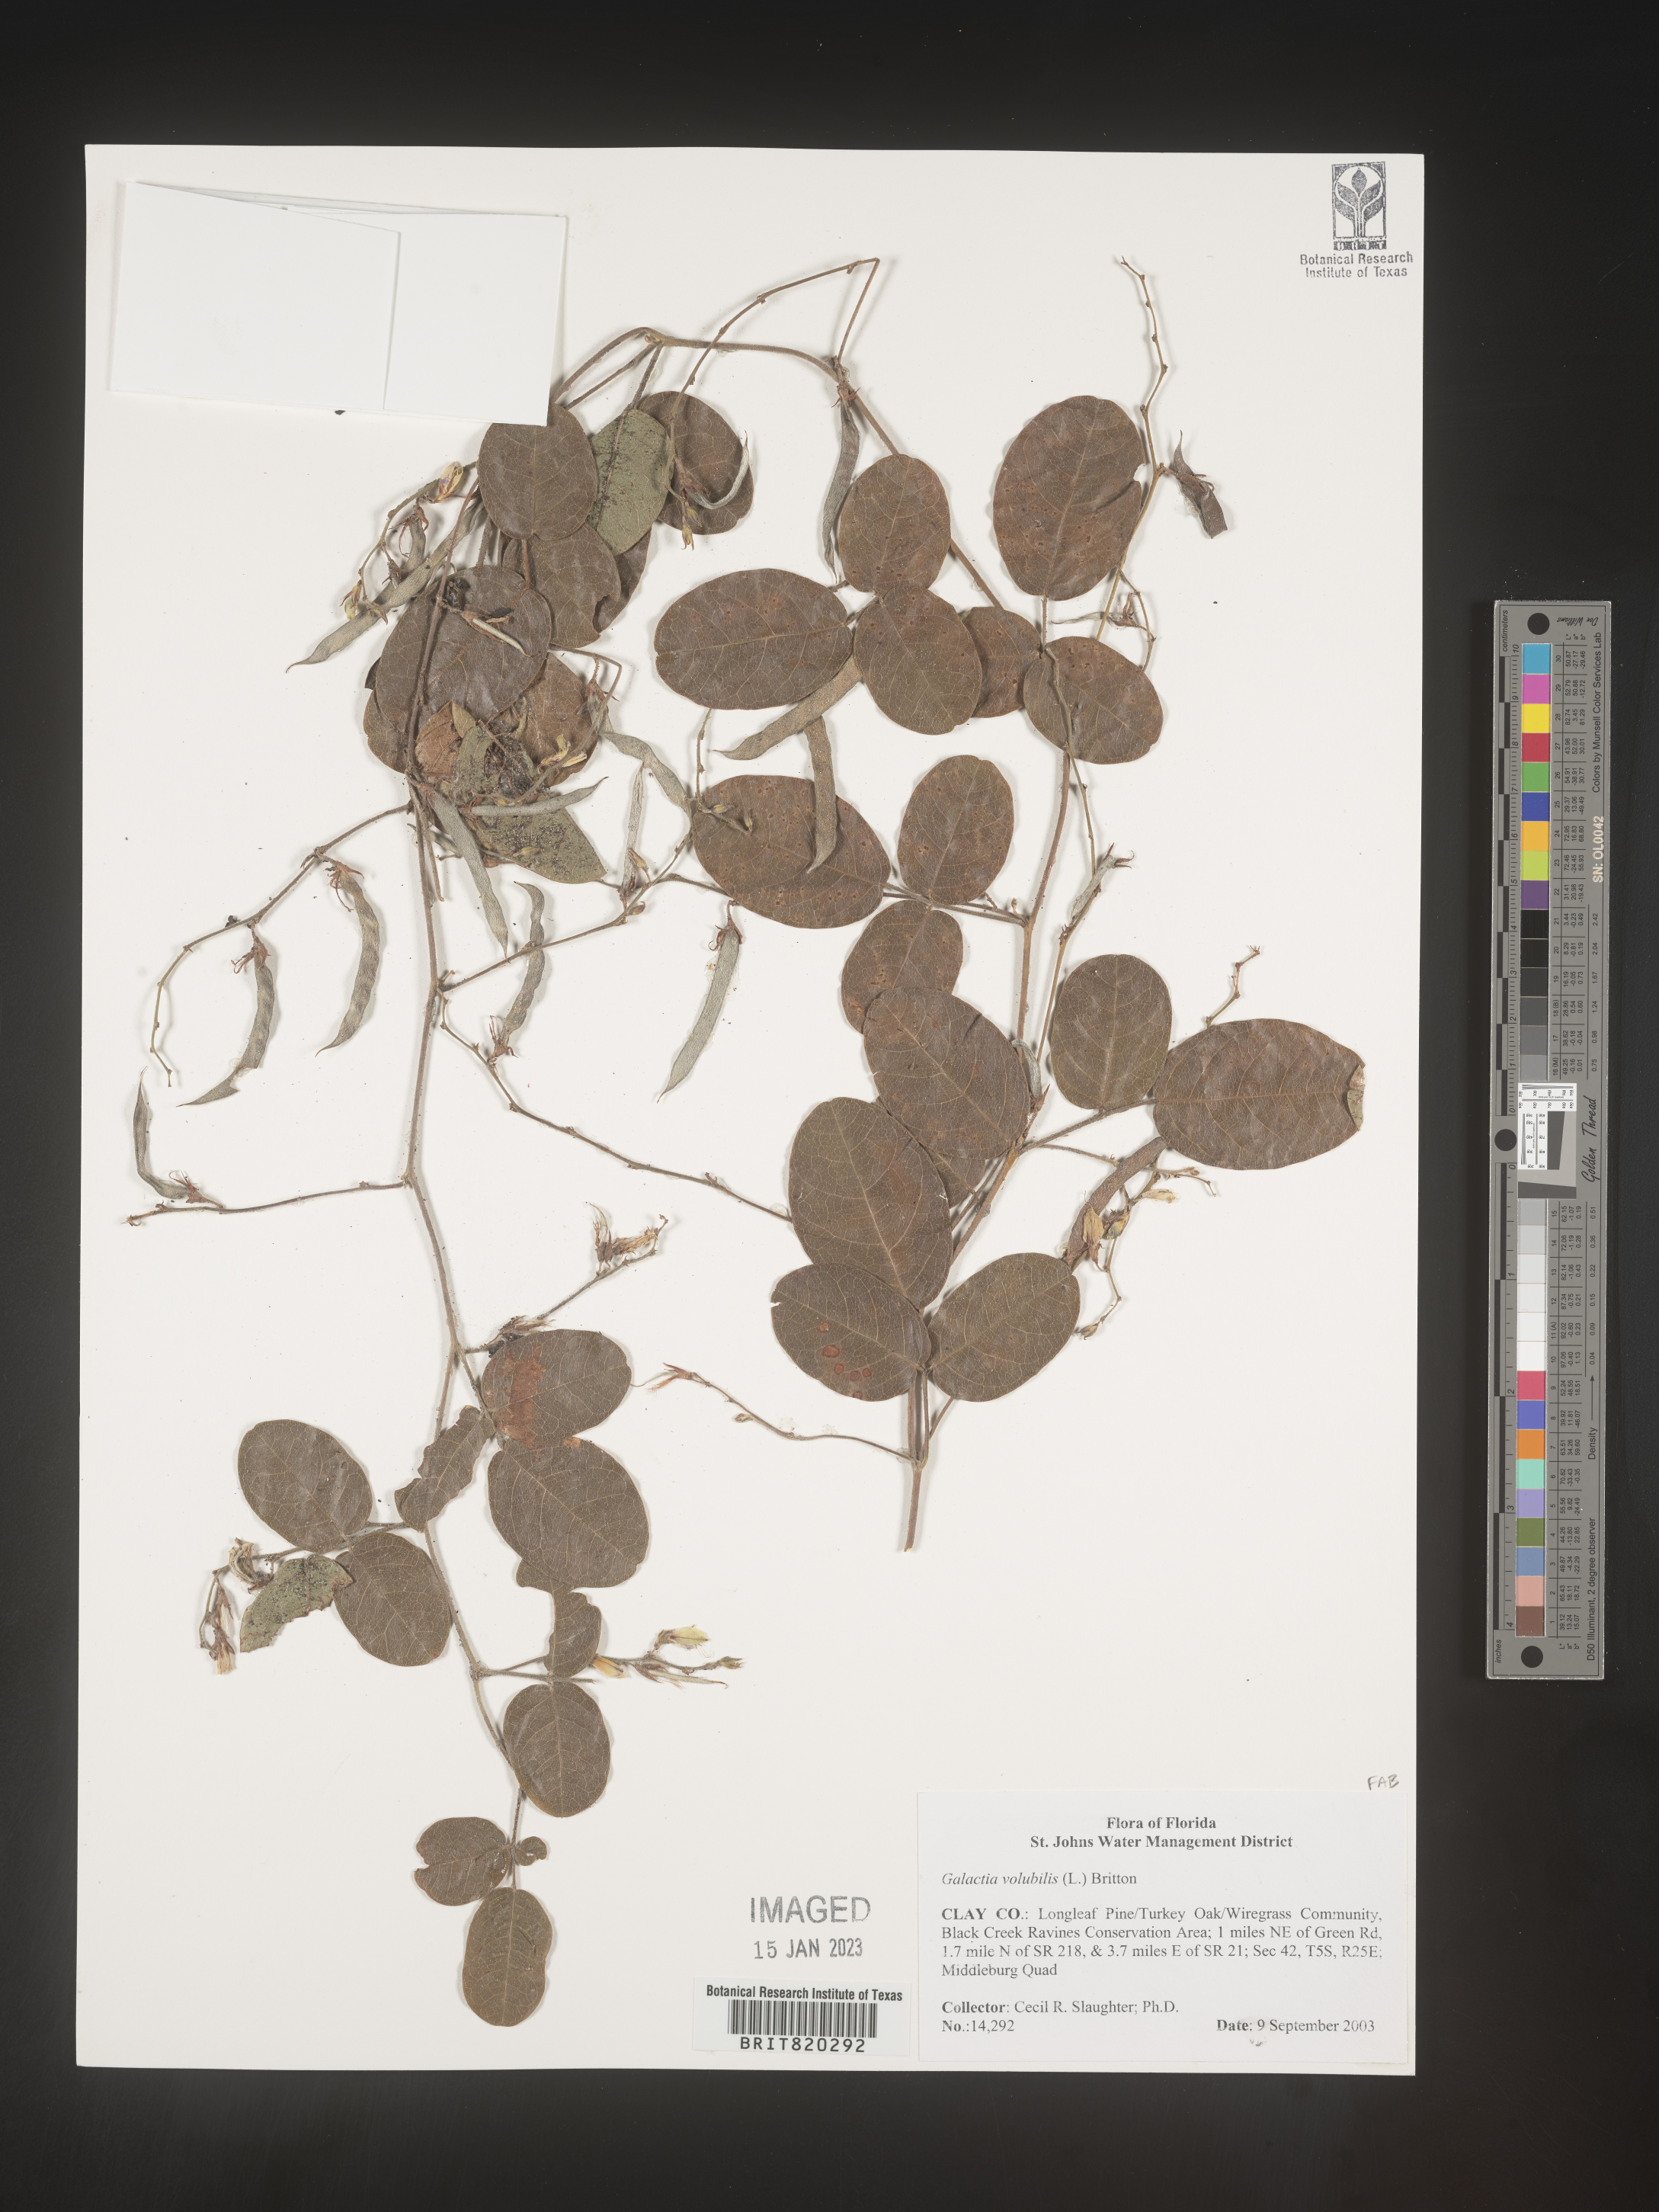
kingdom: Plantae
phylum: Tracheophyta
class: Magnoliopsida
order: Fabales
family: Fabaceae
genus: Galactia
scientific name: Galactia floridana
